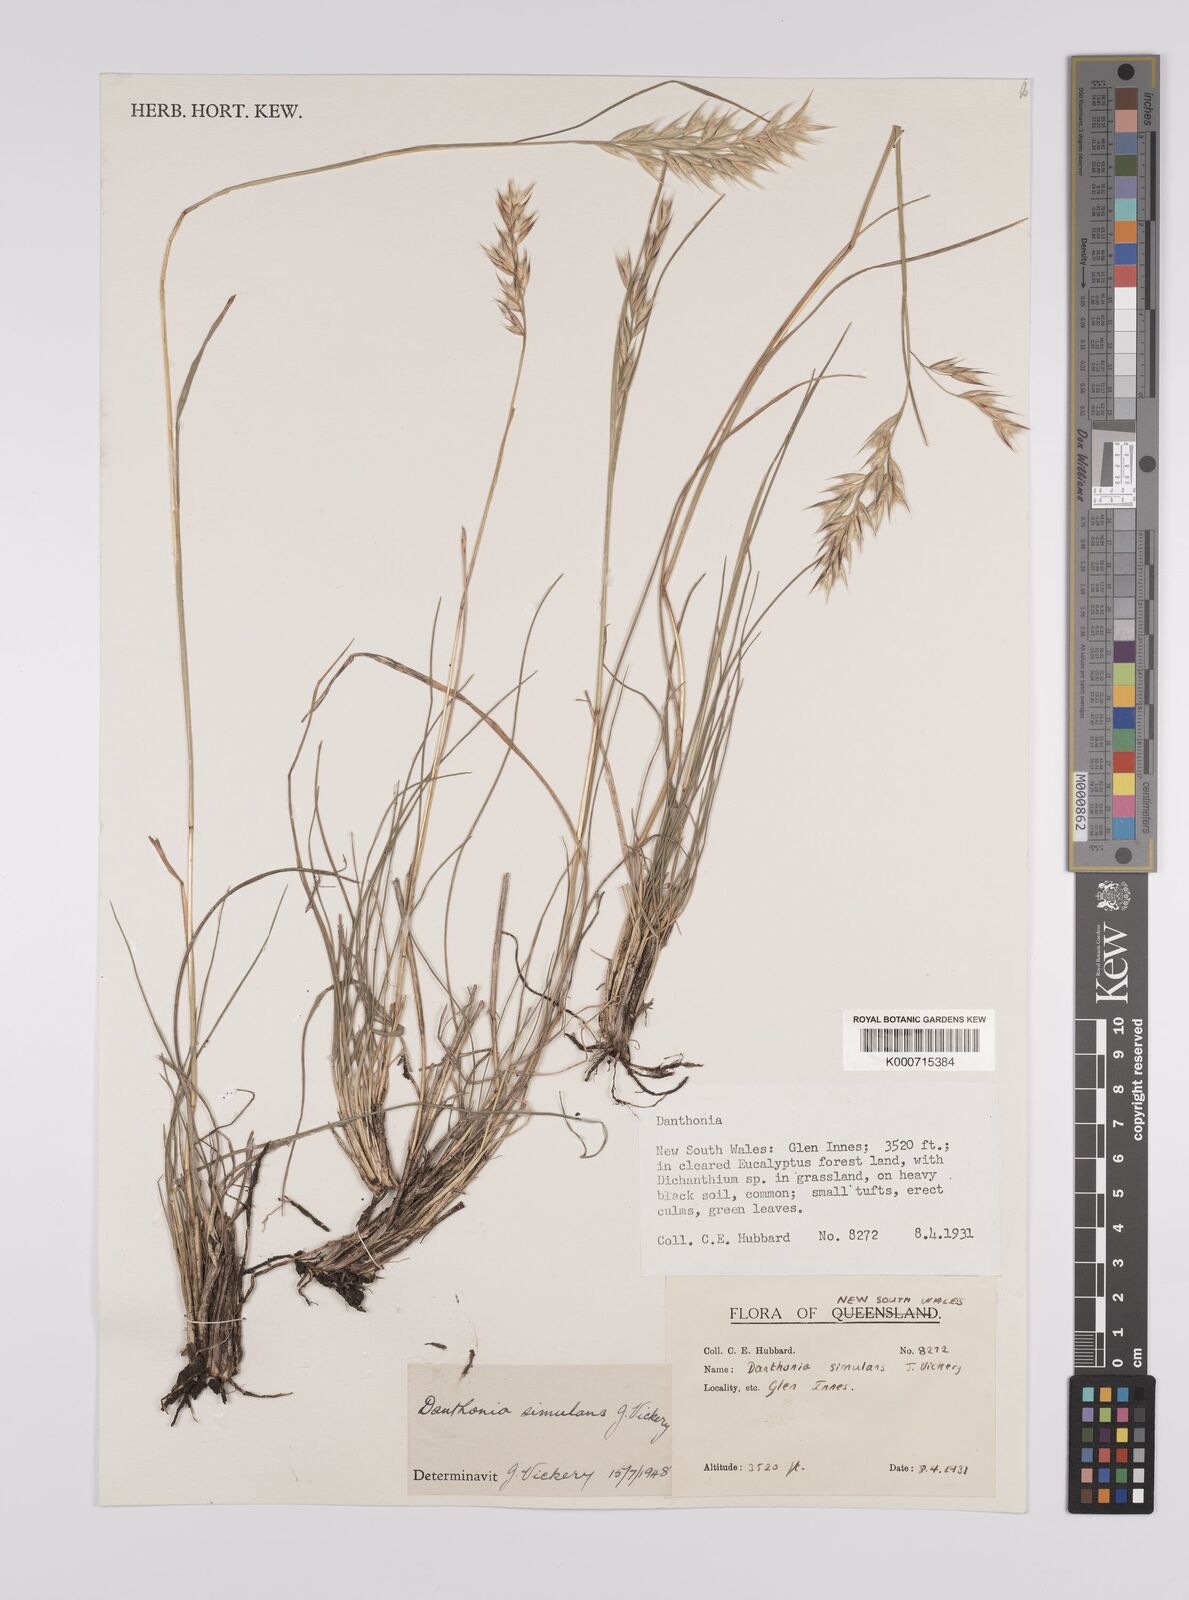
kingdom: Plantae
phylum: Tracheophyta
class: Liliopsida
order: Poales
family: Poaceae
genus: Rytidosperma
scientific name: Rytidosperma bipartitum
